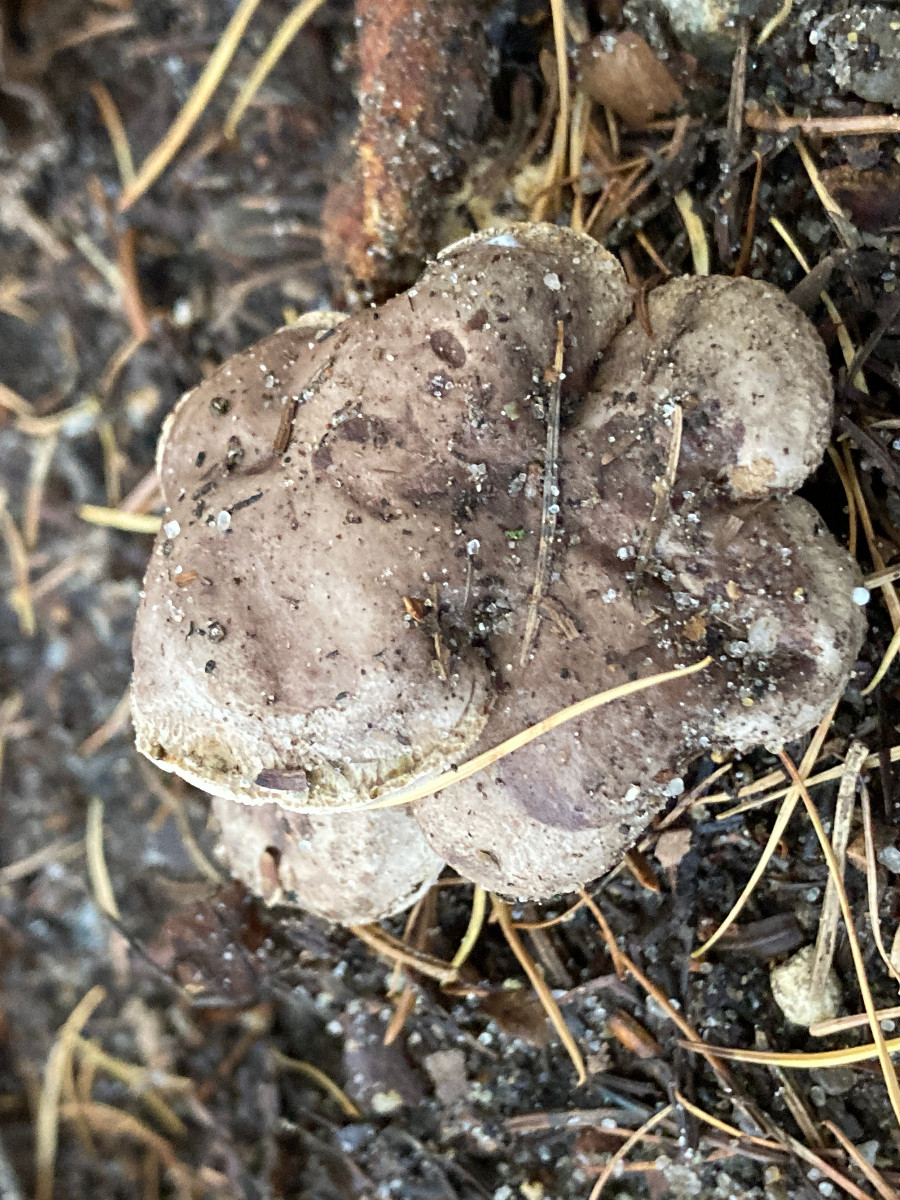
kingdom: Fungi
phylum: Basidiomycota
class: Agaricomycetes
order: Russulales
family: Russulaceae
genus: Lactarius
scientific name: Lactarius blennius
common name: dråbeplettet mælkehat
